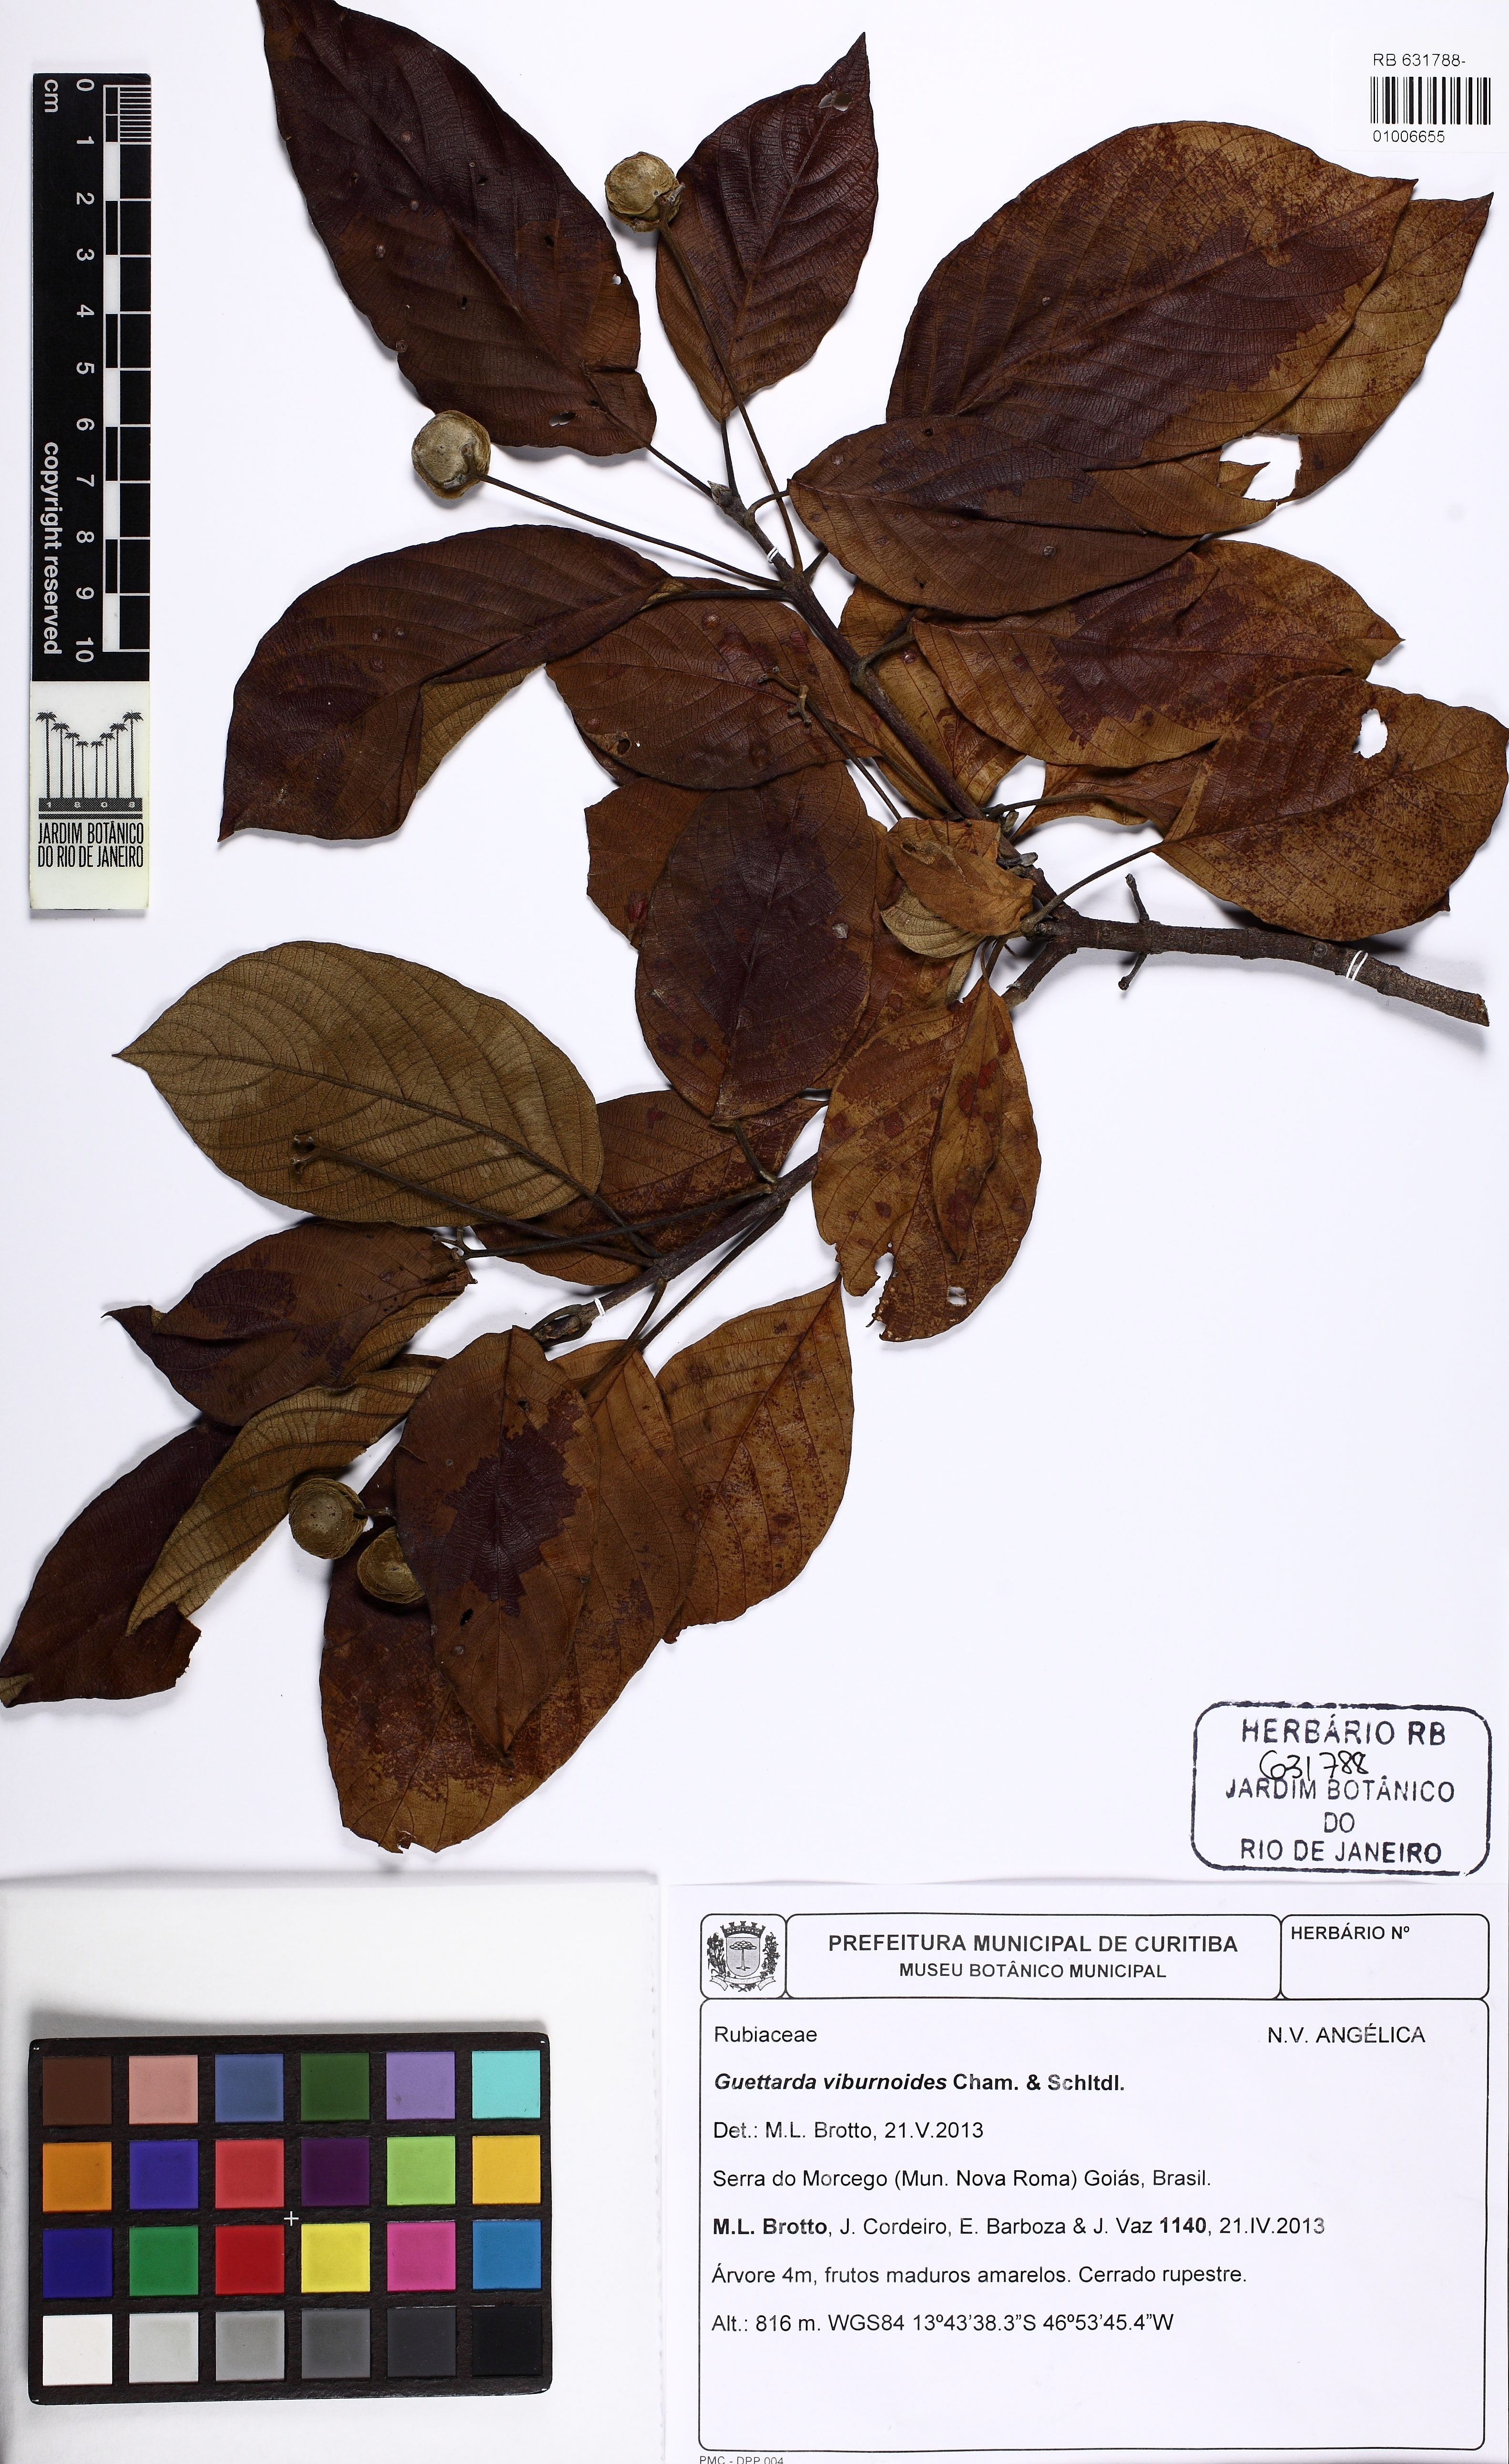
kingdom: Plantae
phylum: Tracheophyta
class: Magnoliopsida
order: Gentianales
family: Rubiaceae
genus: Guettarda
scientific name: Guettarda viburnoides
